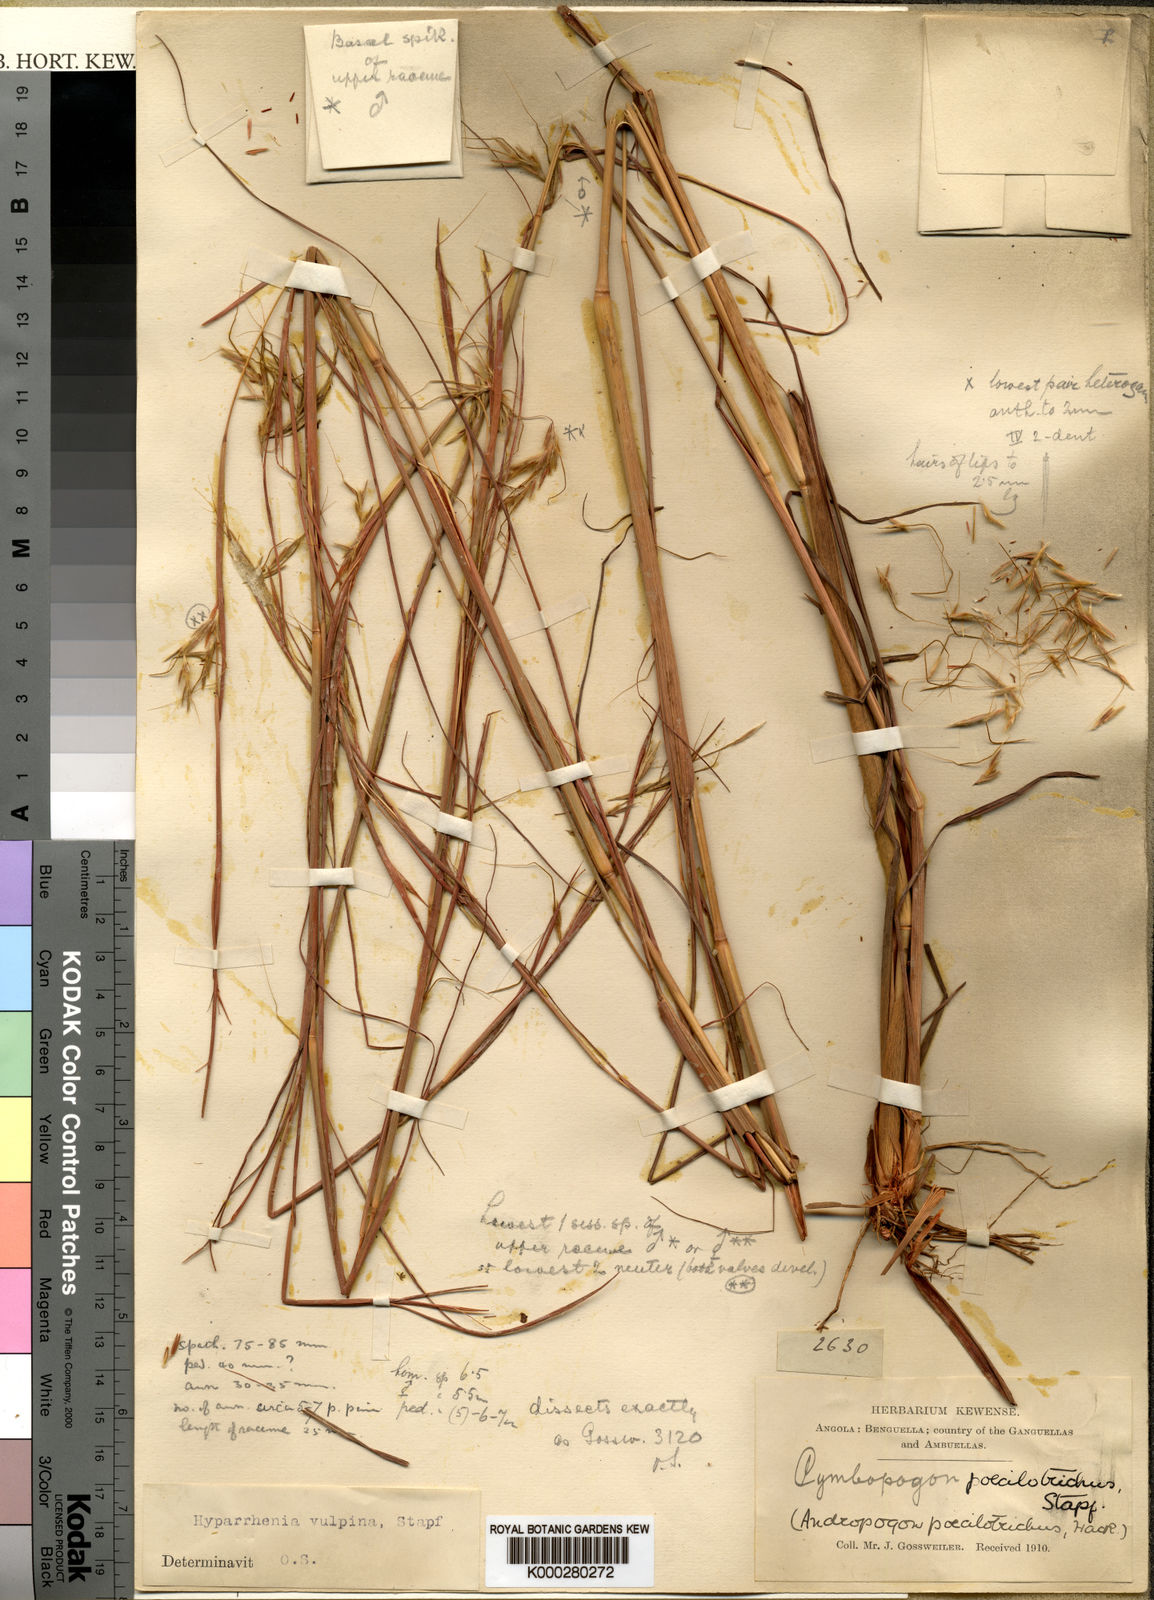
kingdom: Plantae
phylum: Tracheophyta
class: Liliopsida
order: Poales
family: Poaceae
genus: Hyparrhenia
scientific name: Hyparrhenia nyassae
